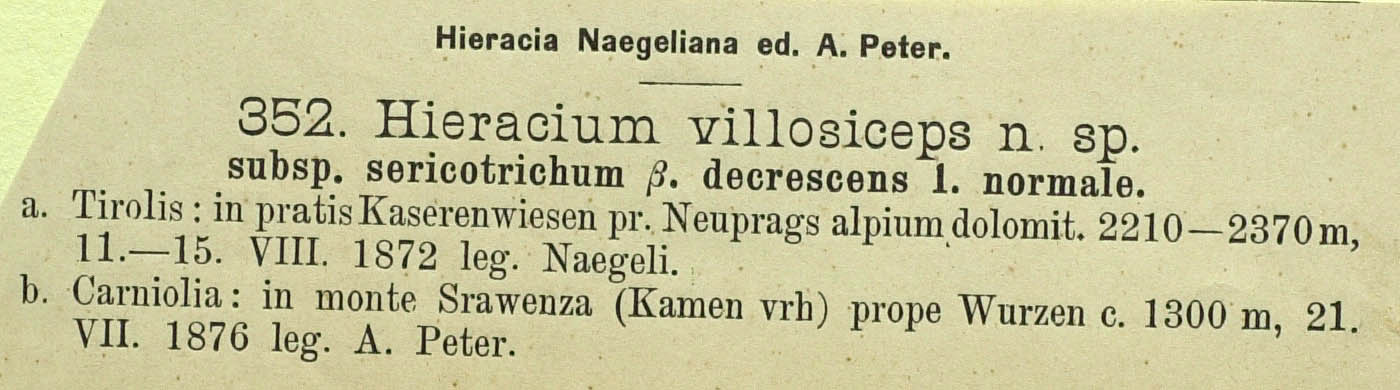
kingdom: Plantae
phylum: Tracheophyta
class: Magnoliopsida
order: Asterales
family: Asteraceae
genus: Hieracium
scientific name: Hieracium pilosum
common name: Fimbriate-pitted hawkweed
